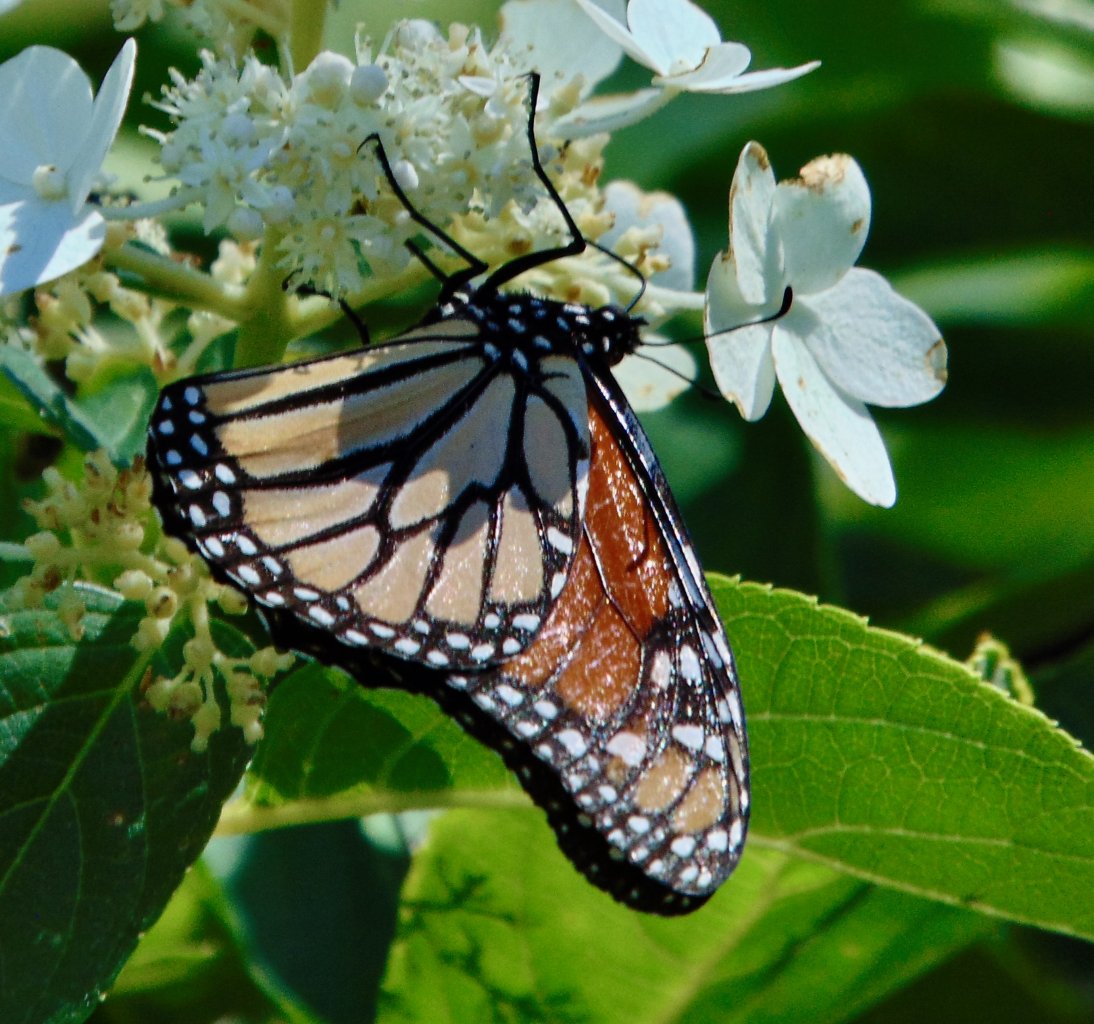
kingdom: Animalia
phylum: Arthropoda
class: Insecta
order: Lepidoptera
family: Nymphalidae
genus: Danaus
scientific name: Danaus plexippus
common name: Monarch
